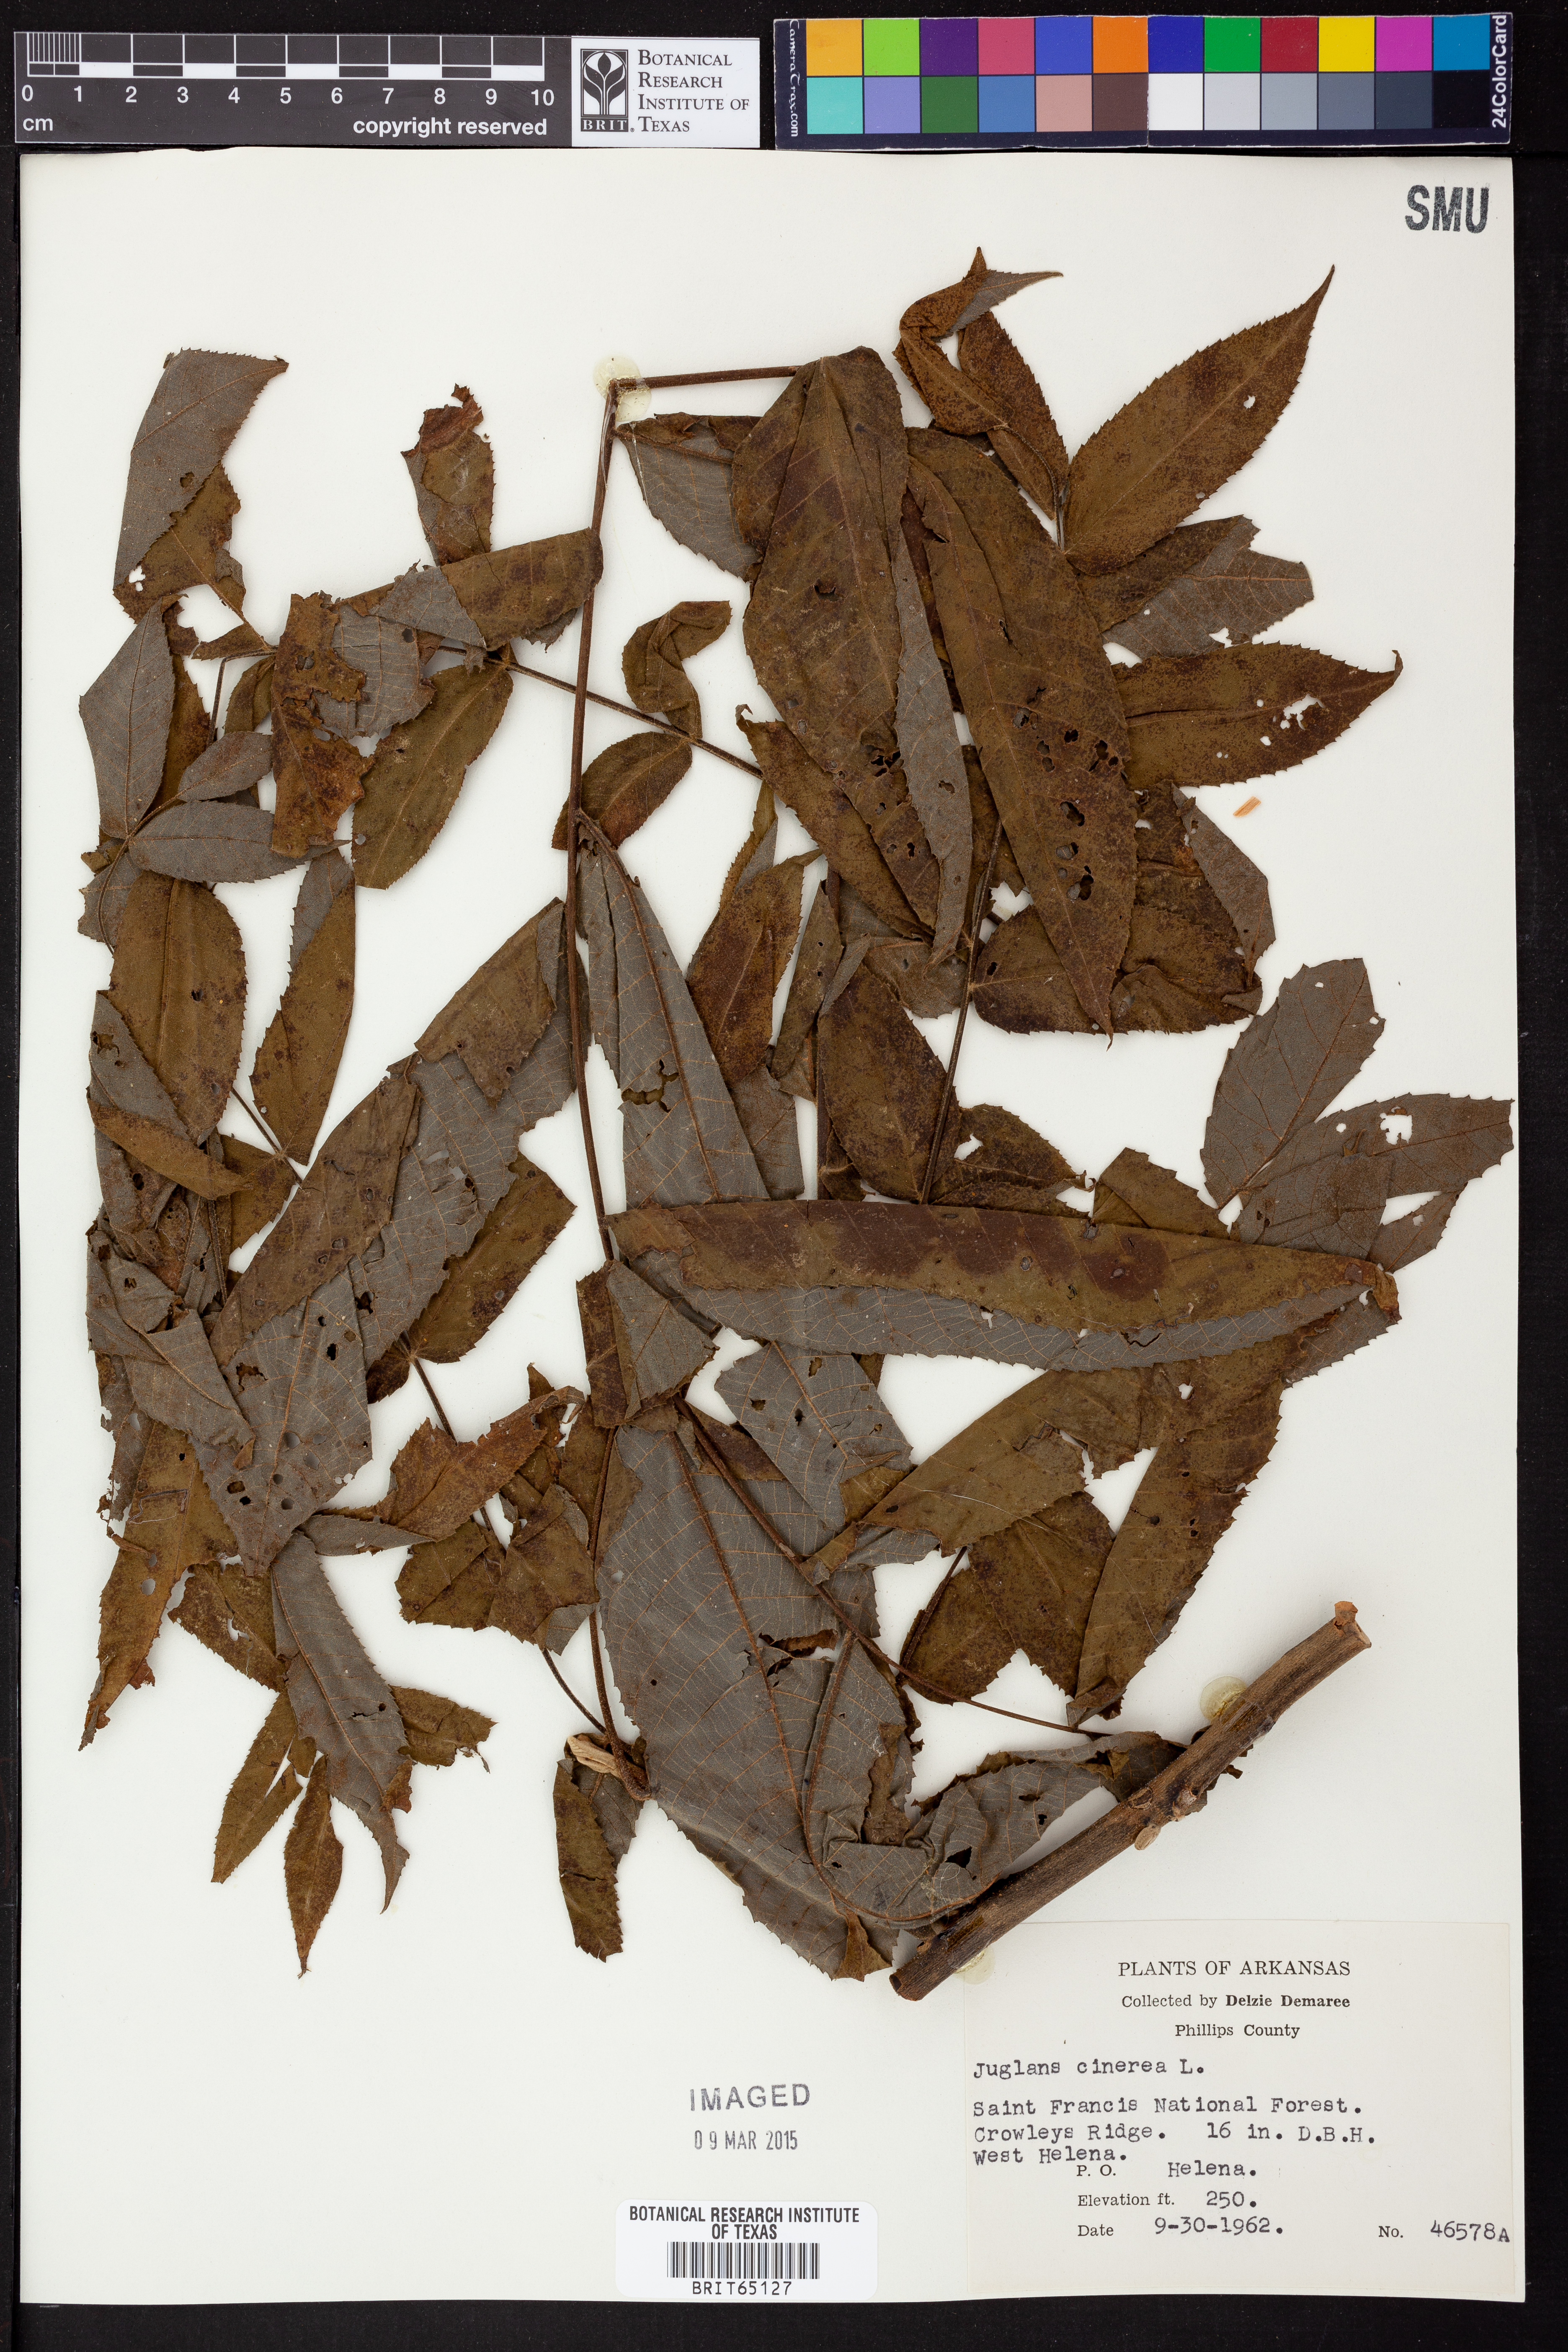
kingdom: Plantae
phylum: Tracheophyta
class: Magnoliopsida
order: Fagales
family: Juglandaceae
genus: Juglans
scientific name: Juglans cinerea
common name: Butternut
